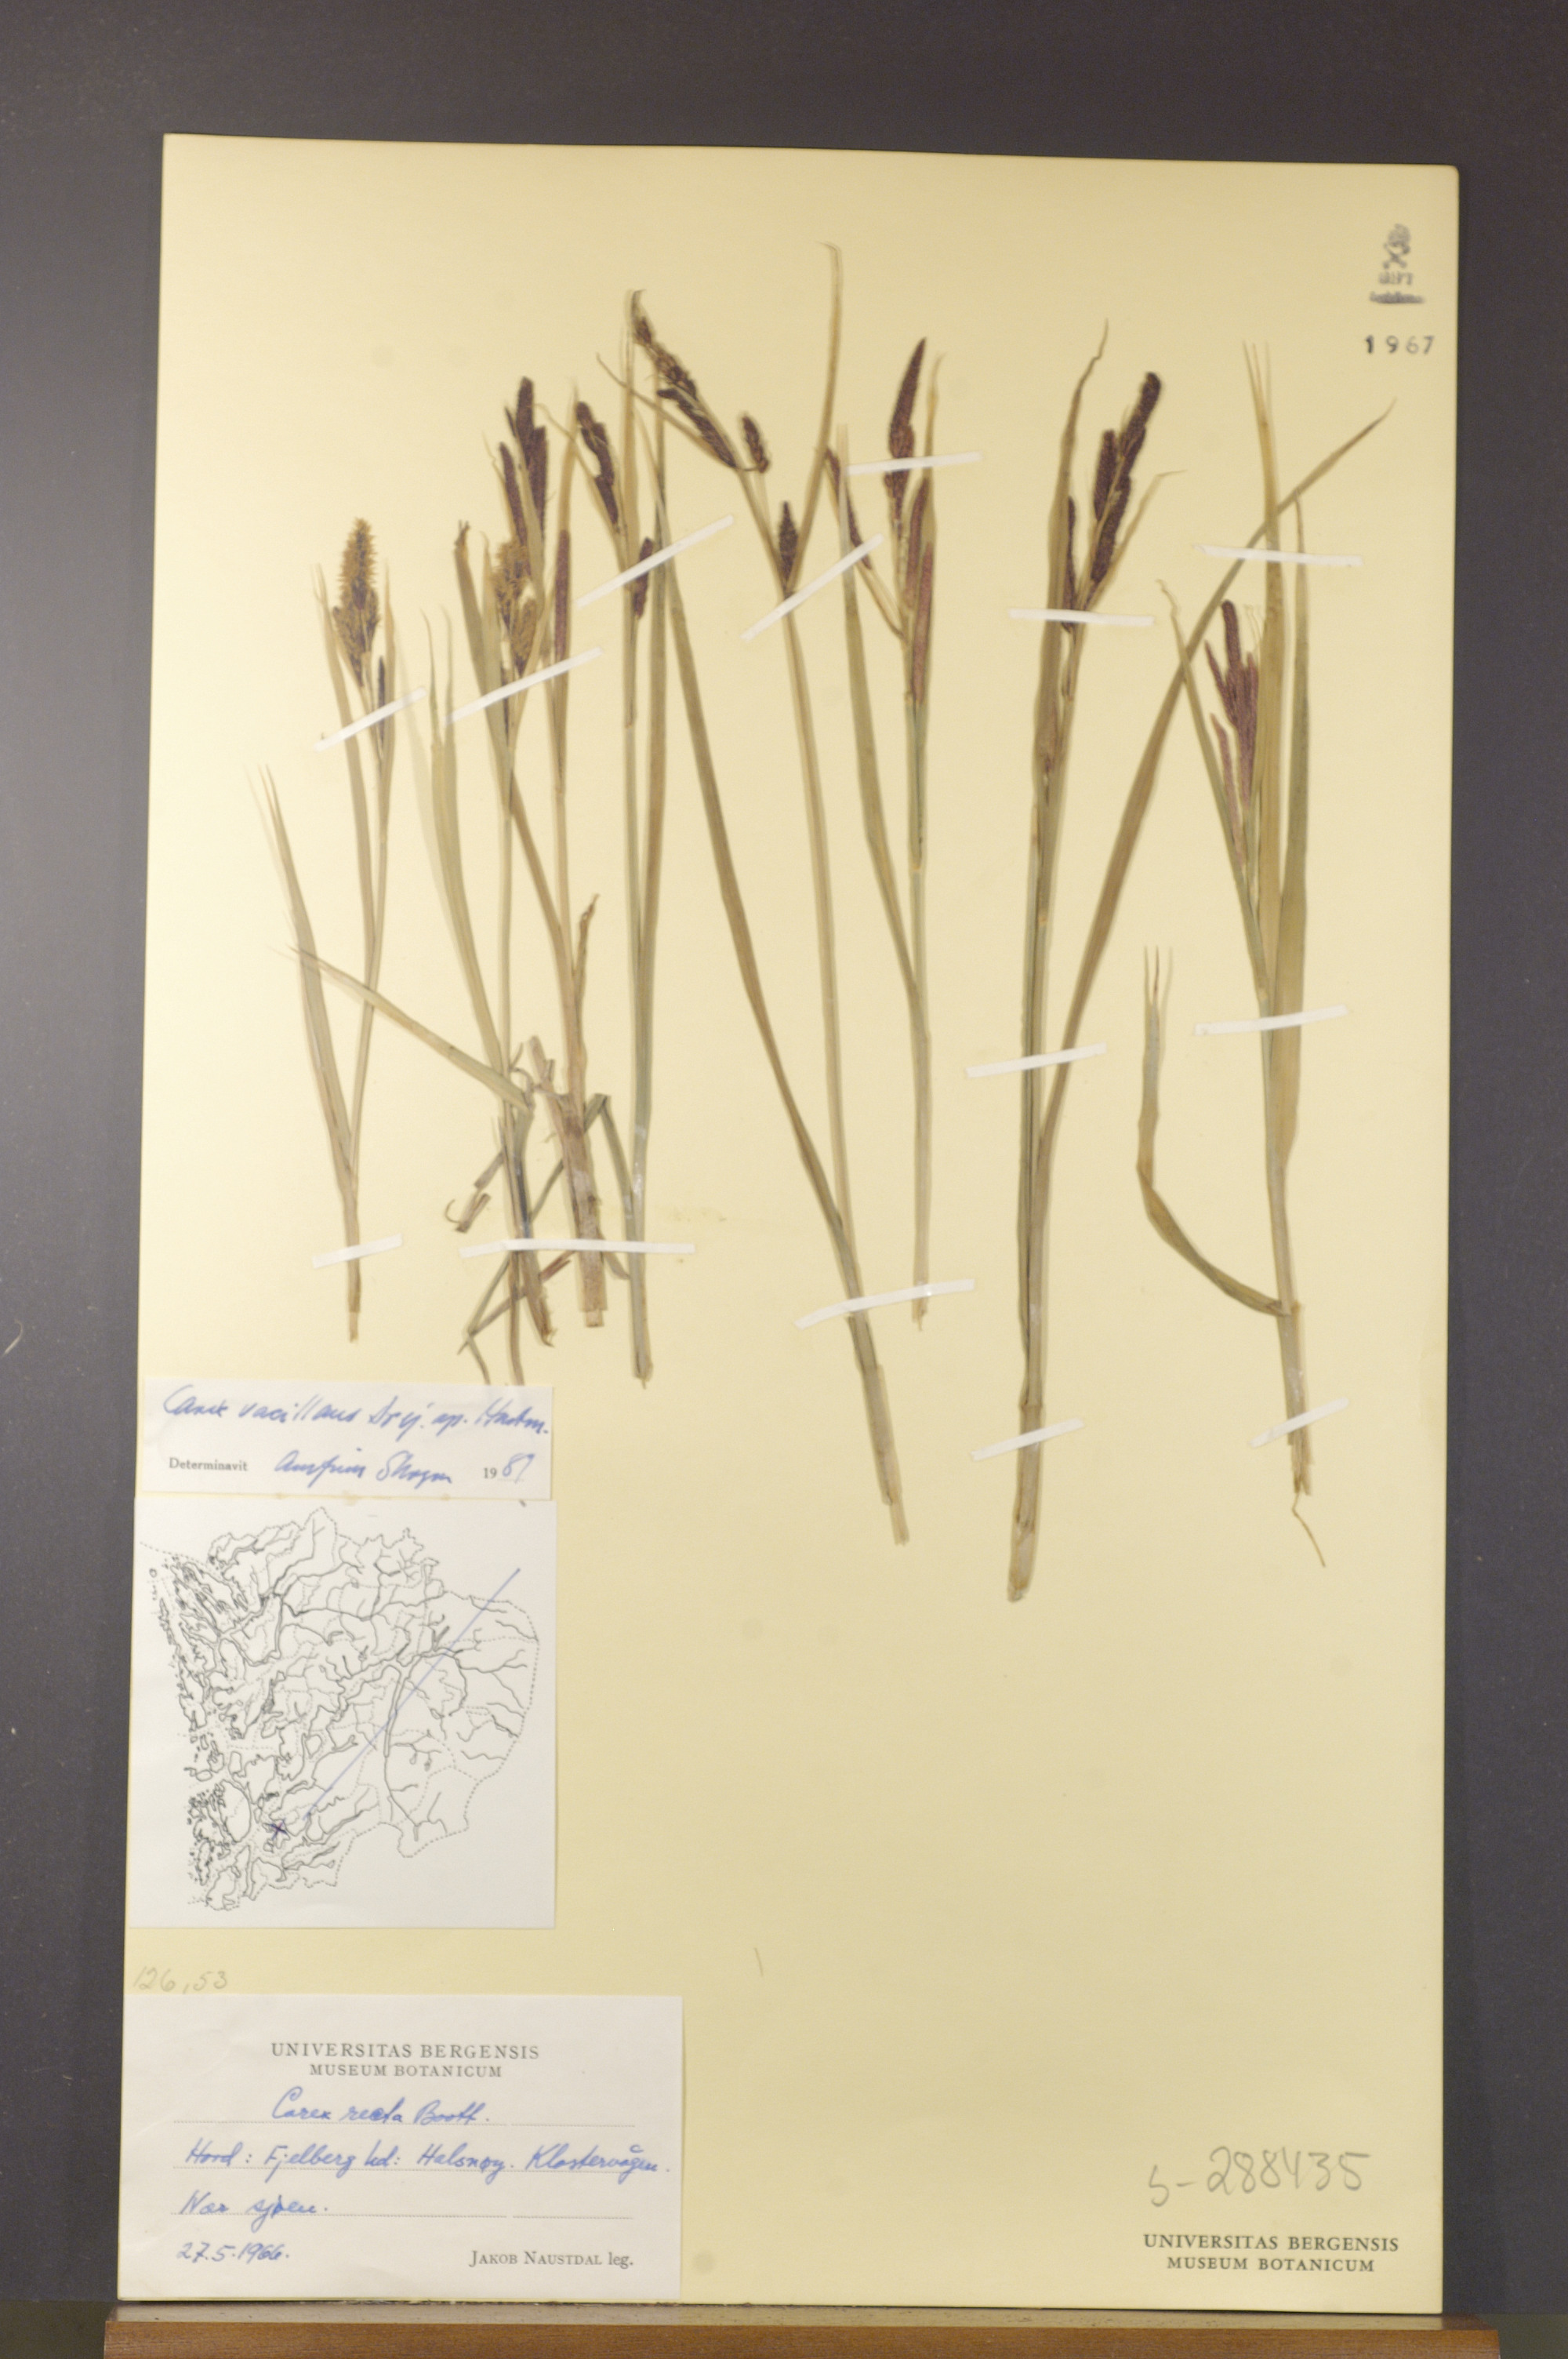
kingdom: Plantae
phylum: Tracheophyta
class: Liliopsida
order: Poales
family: Cyperaceae
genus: Carex
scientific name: Carex vacillans
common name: Sedge
